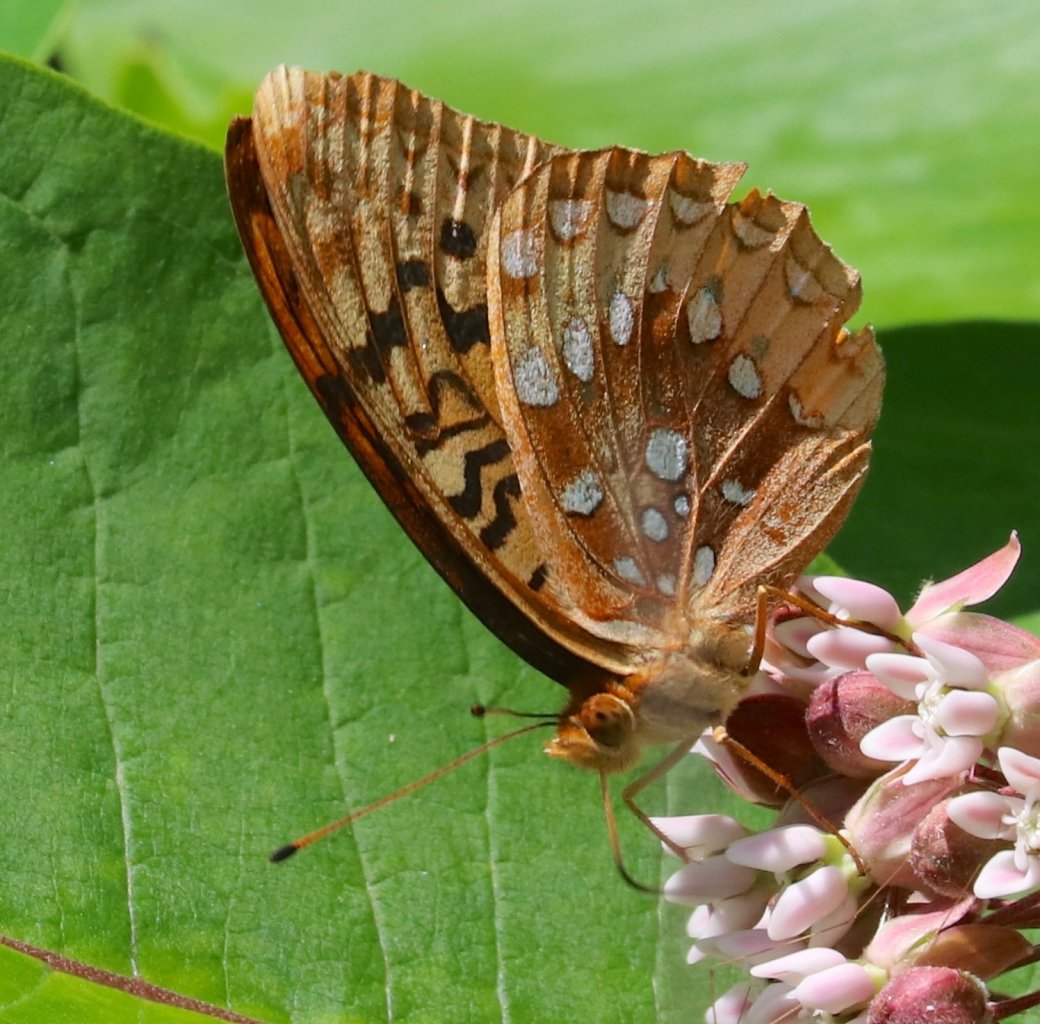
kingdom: Animalia
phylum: Arthropoda
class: Insecta
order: Lepidoptera
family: Nymphalidae
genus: Speyeria
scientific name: Speyeria cybele
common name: Great Spangled Fritillary
